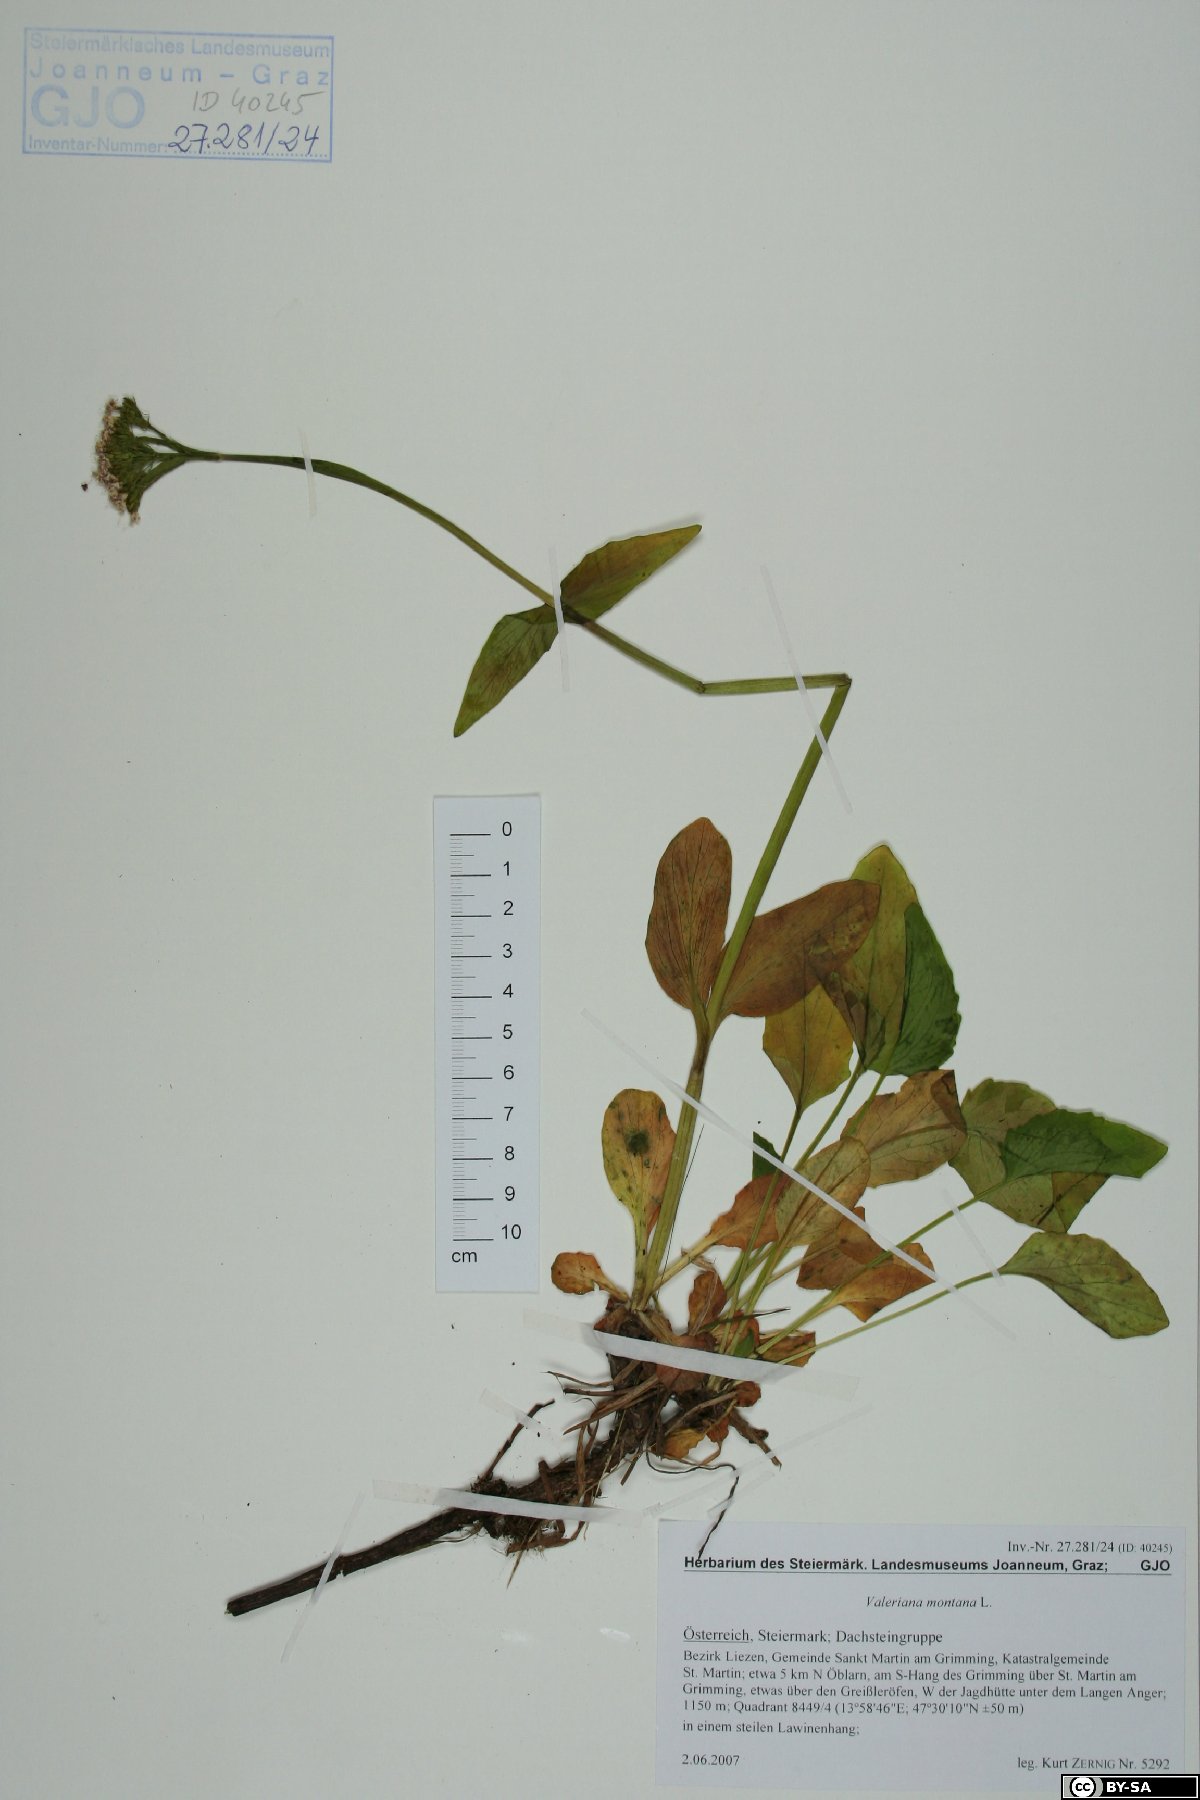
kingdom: Plantae
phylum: Tracheophyta
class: Magnoliopsida
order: Dipsacales
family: Caprifoliaceae
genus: Valeriana
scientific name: Valeriana montana
